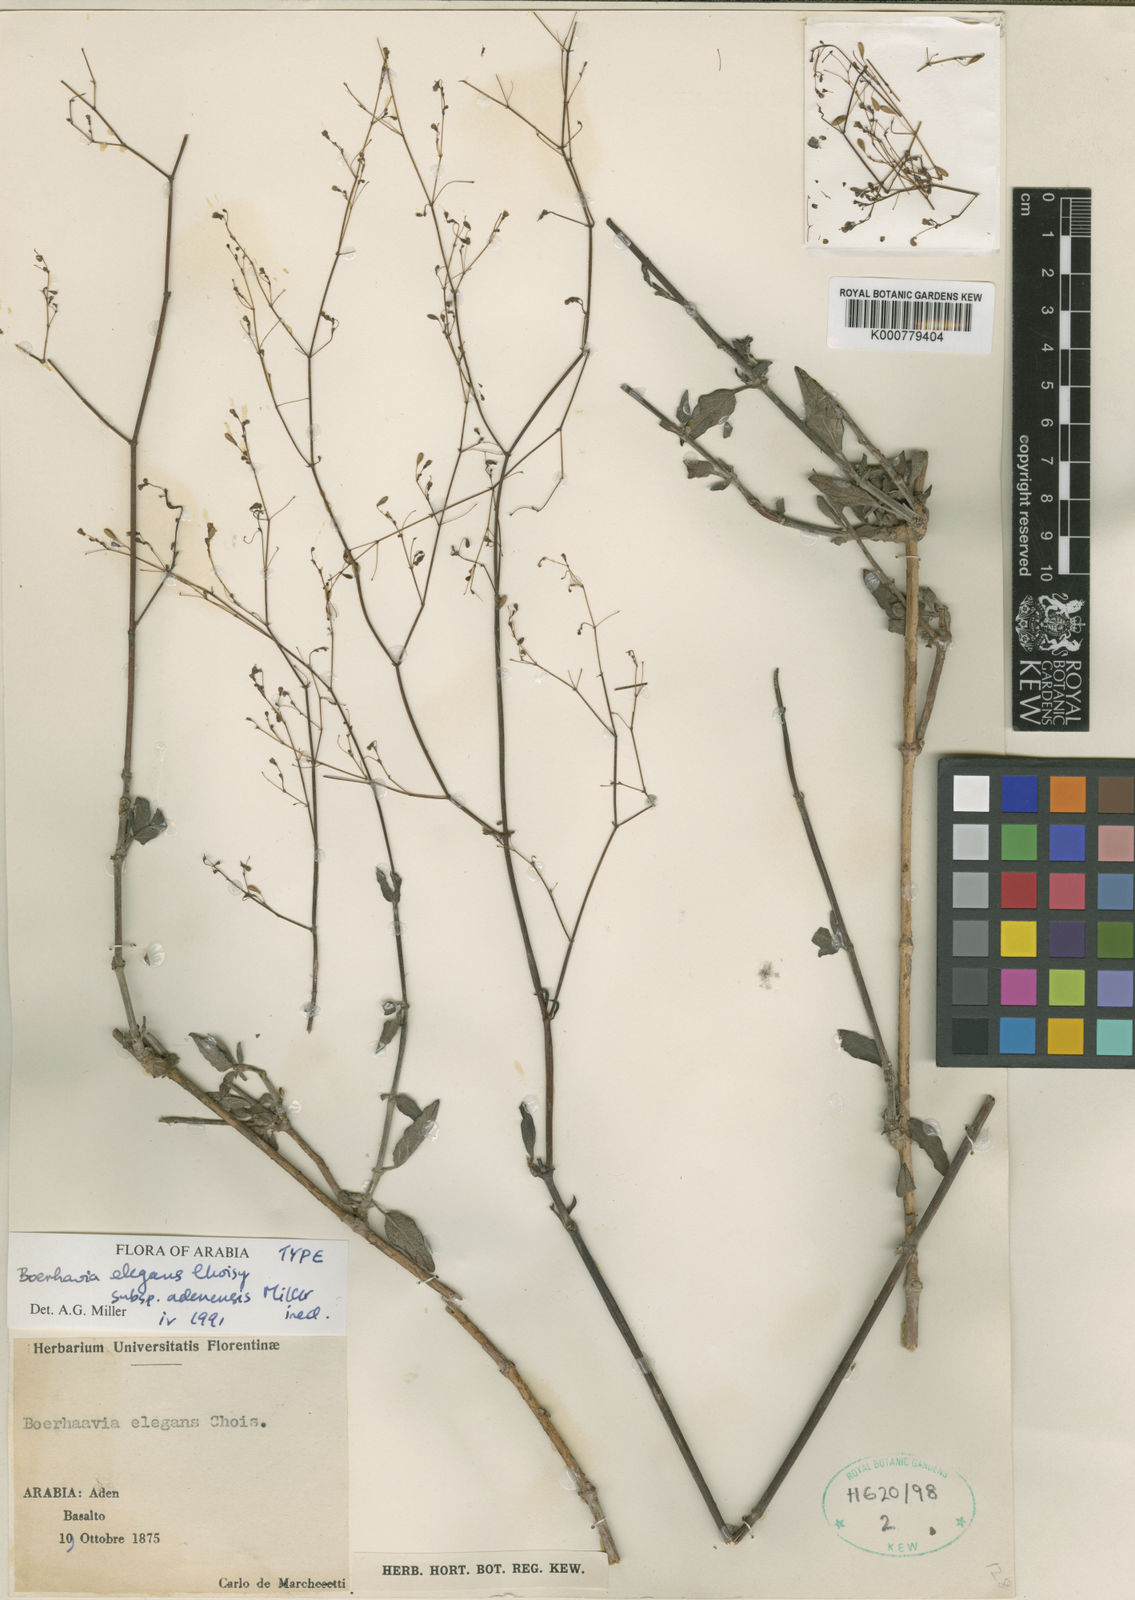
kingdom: Plantae
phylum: Tracheophyta
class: Magnoliopsida
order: Caryophyllales
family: Nyctaginaceae
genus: Boerhavia
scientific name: Boerhavia elegans
